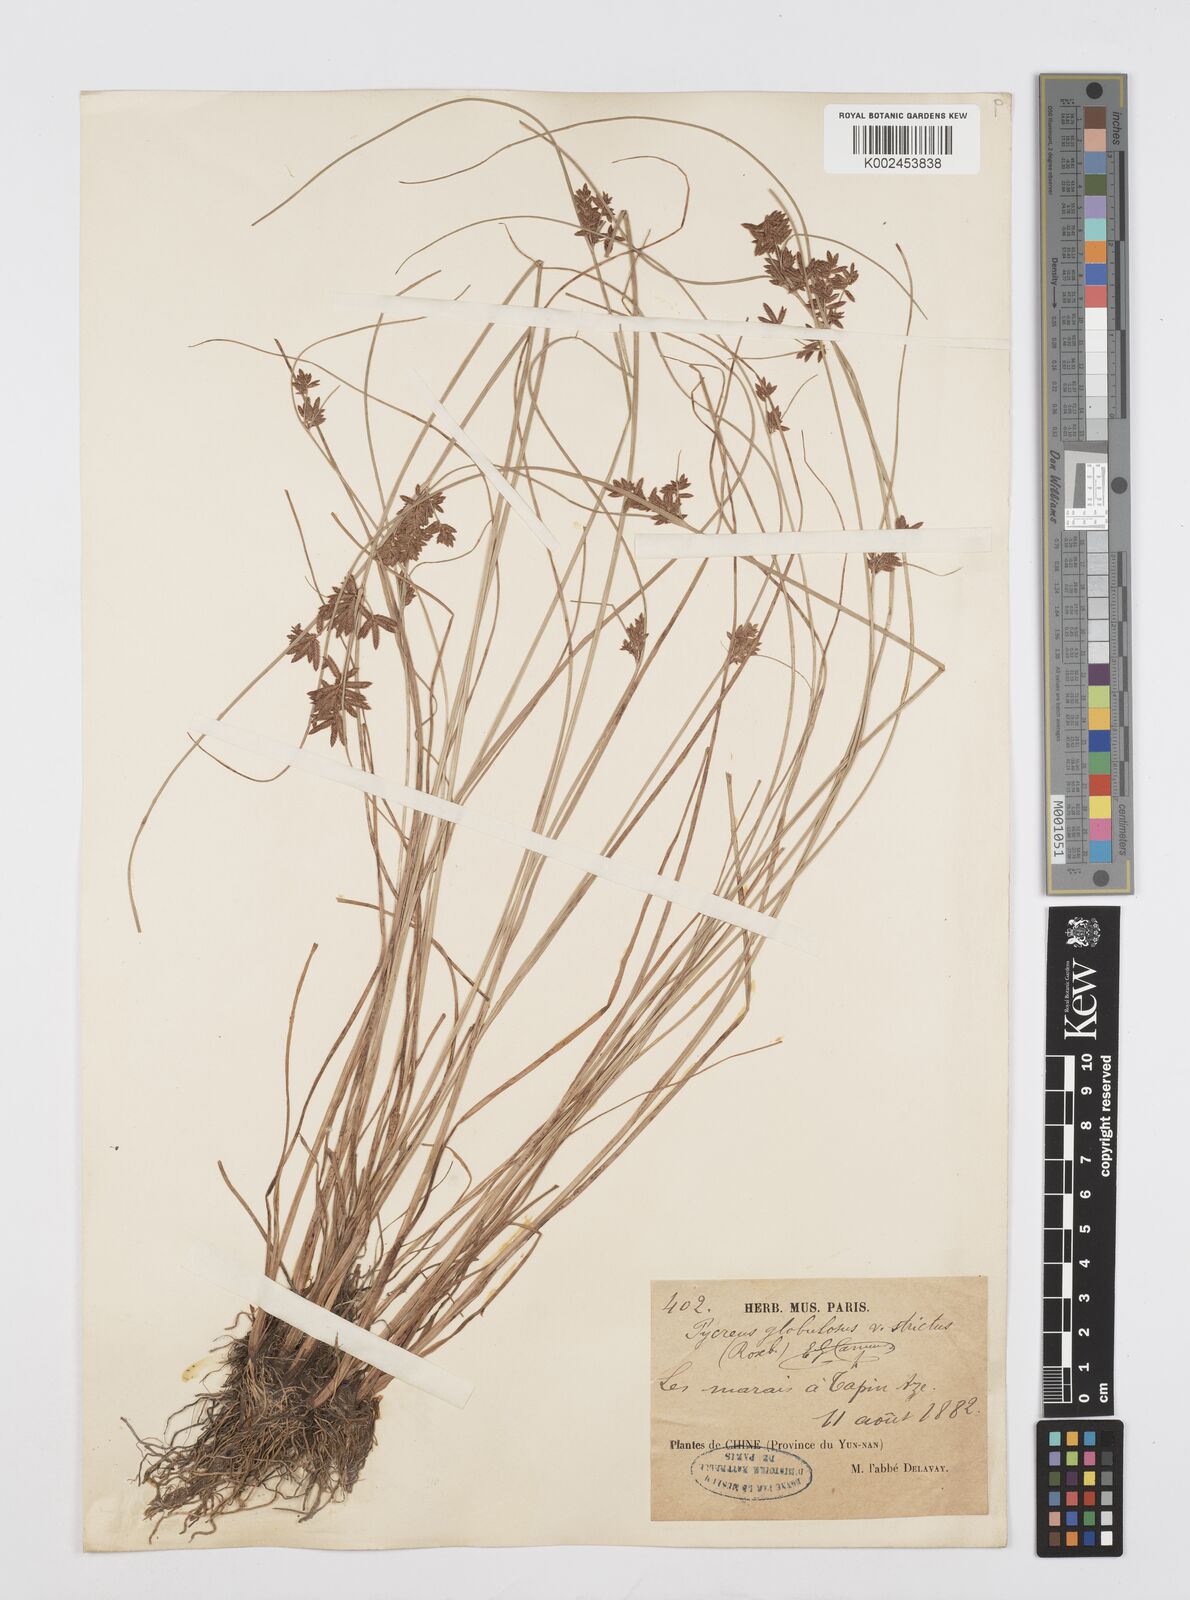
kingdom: Plantae
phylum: Tracheophyta
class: Liliopsida
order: Poales
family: Cyperaceae
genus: Cyperus
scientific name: Cyperus flavidus
